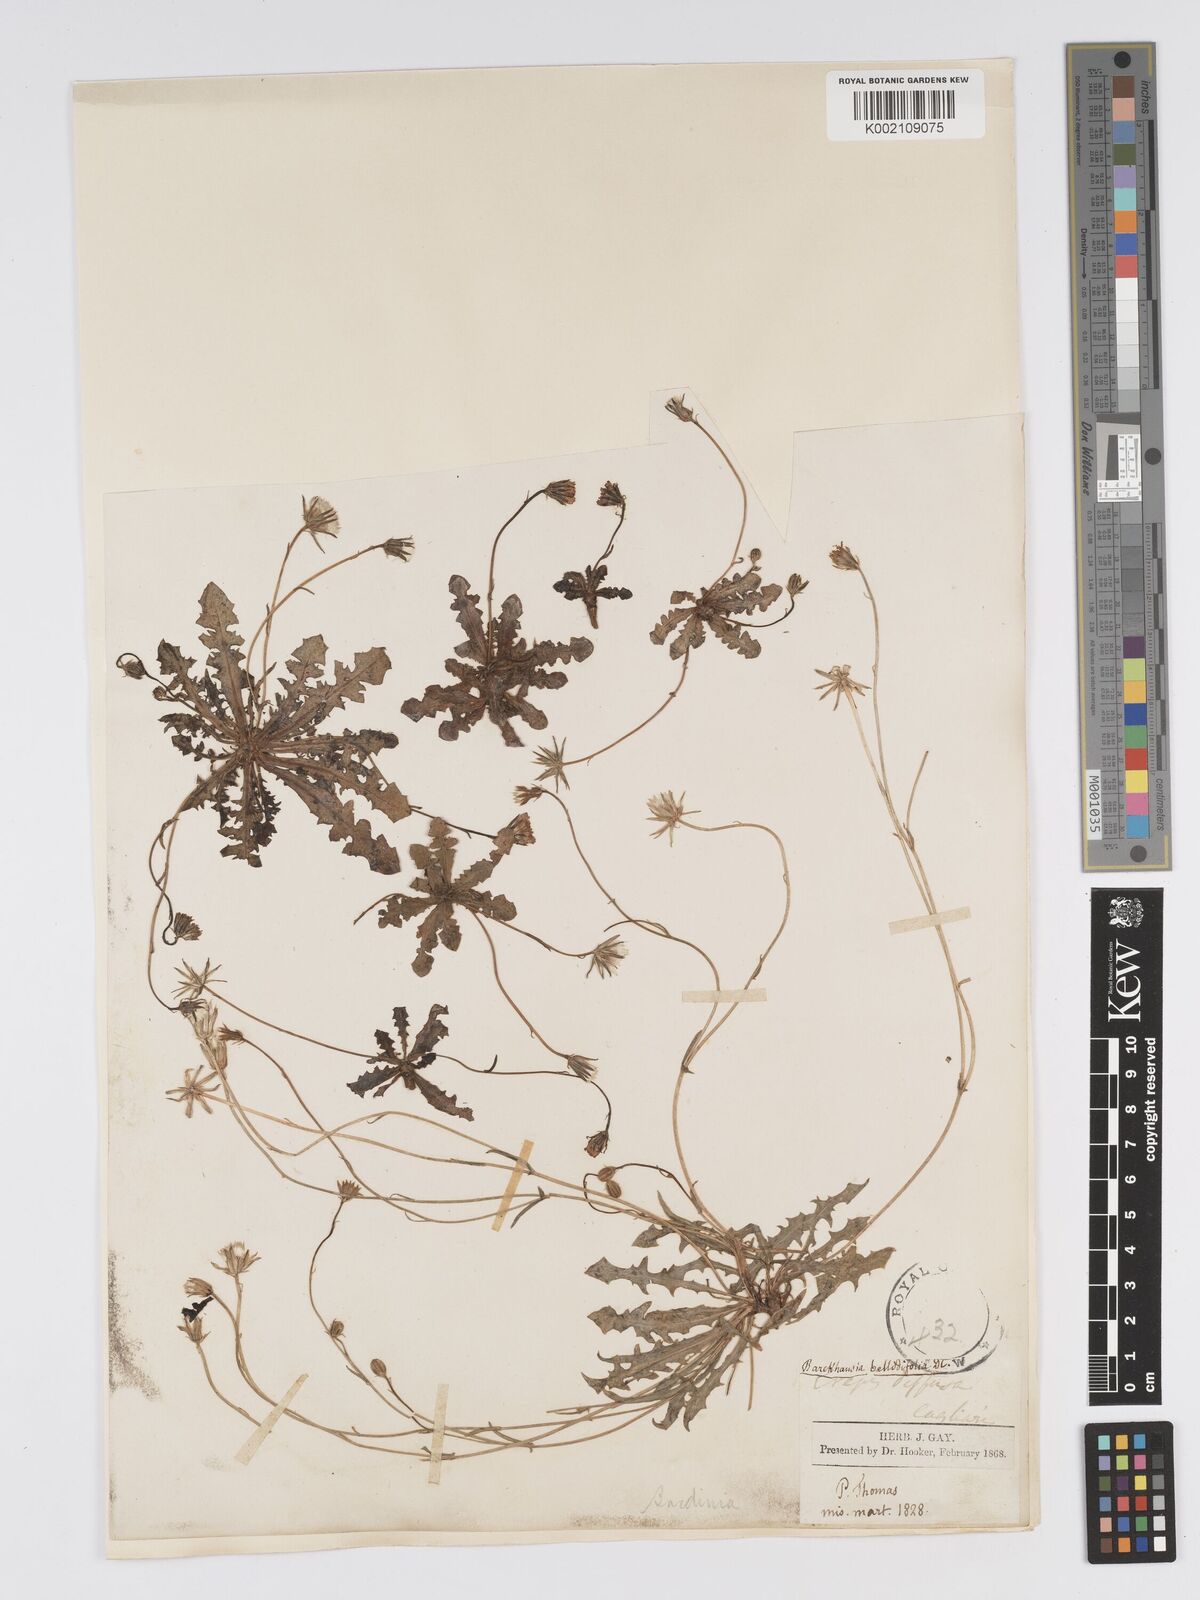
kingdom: Plantae
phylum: Tracheophyta
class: Magnoliopsida
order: Asterales
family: Asteraceae
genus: Crepis
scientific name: Crepis bellidifolia
